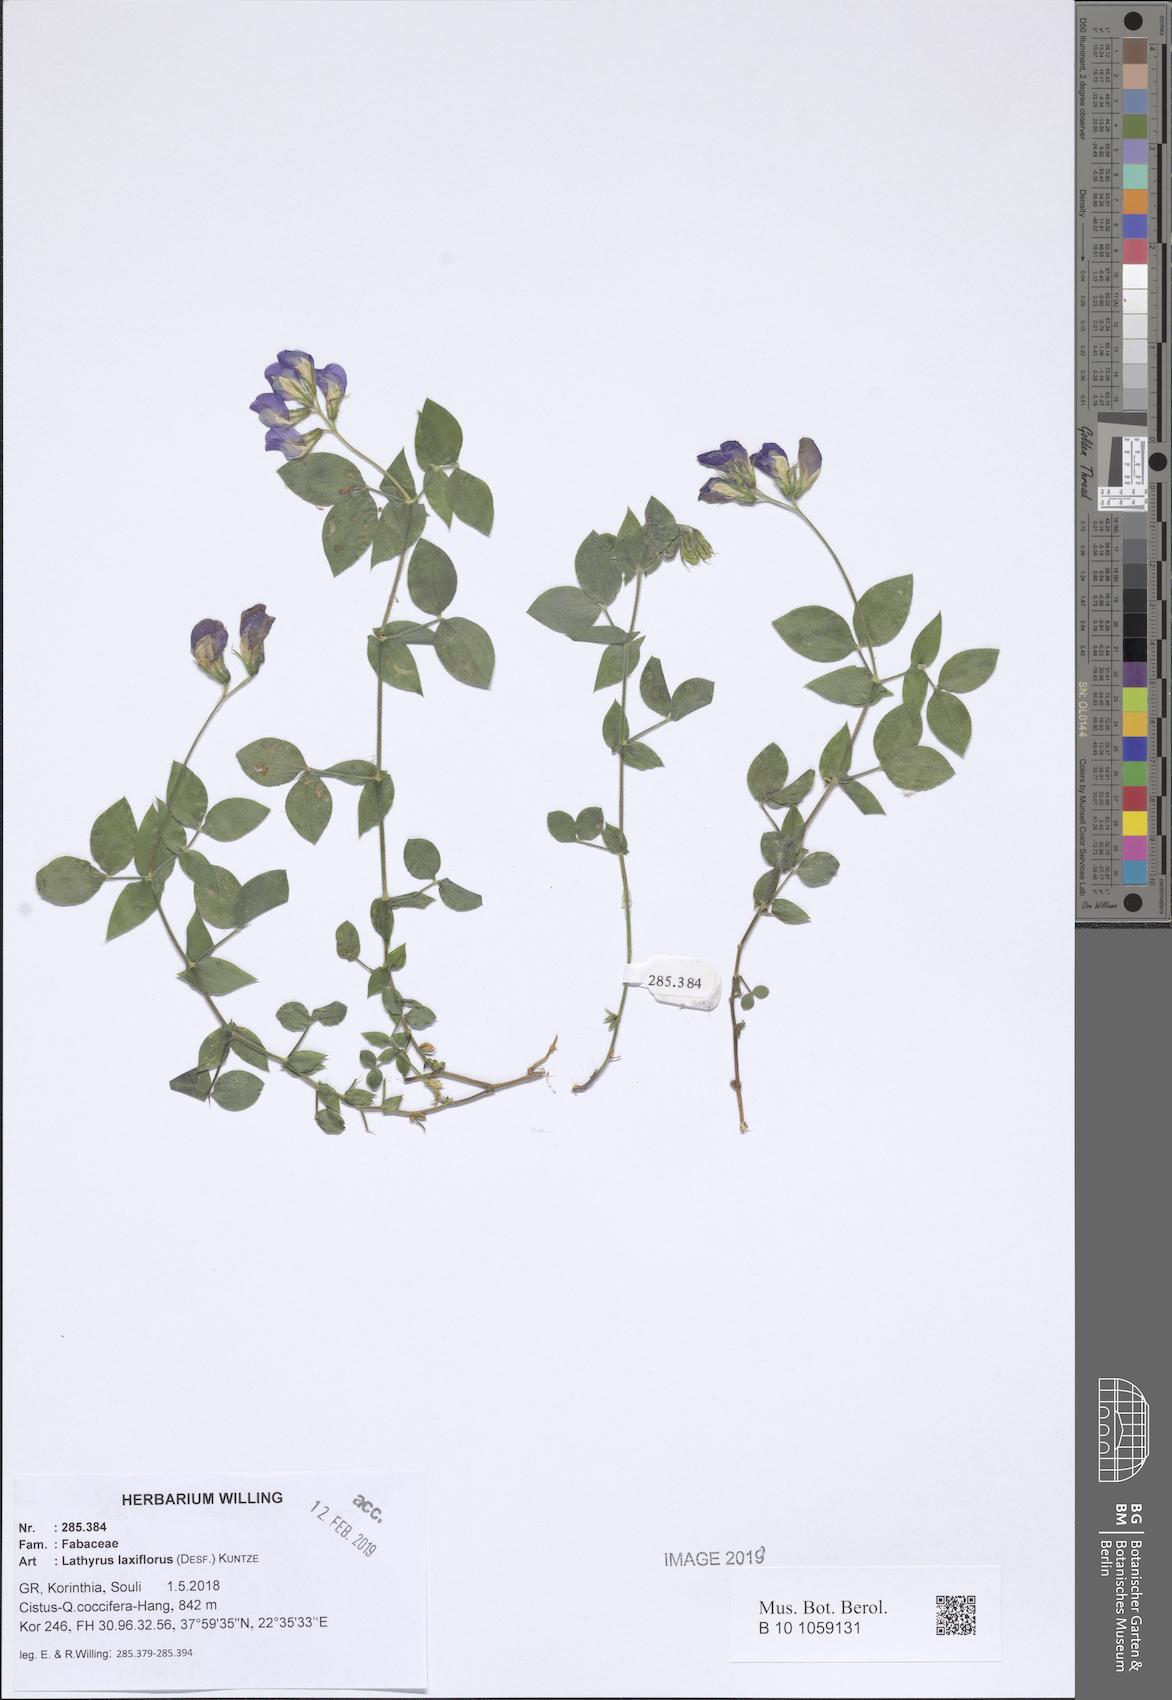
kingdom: Plantae
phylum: Tracheophyta
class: Magnoliopsida
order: Fabales
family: Fabaceae
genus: Lathyrus
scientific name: Lathyrus laxiflorus
